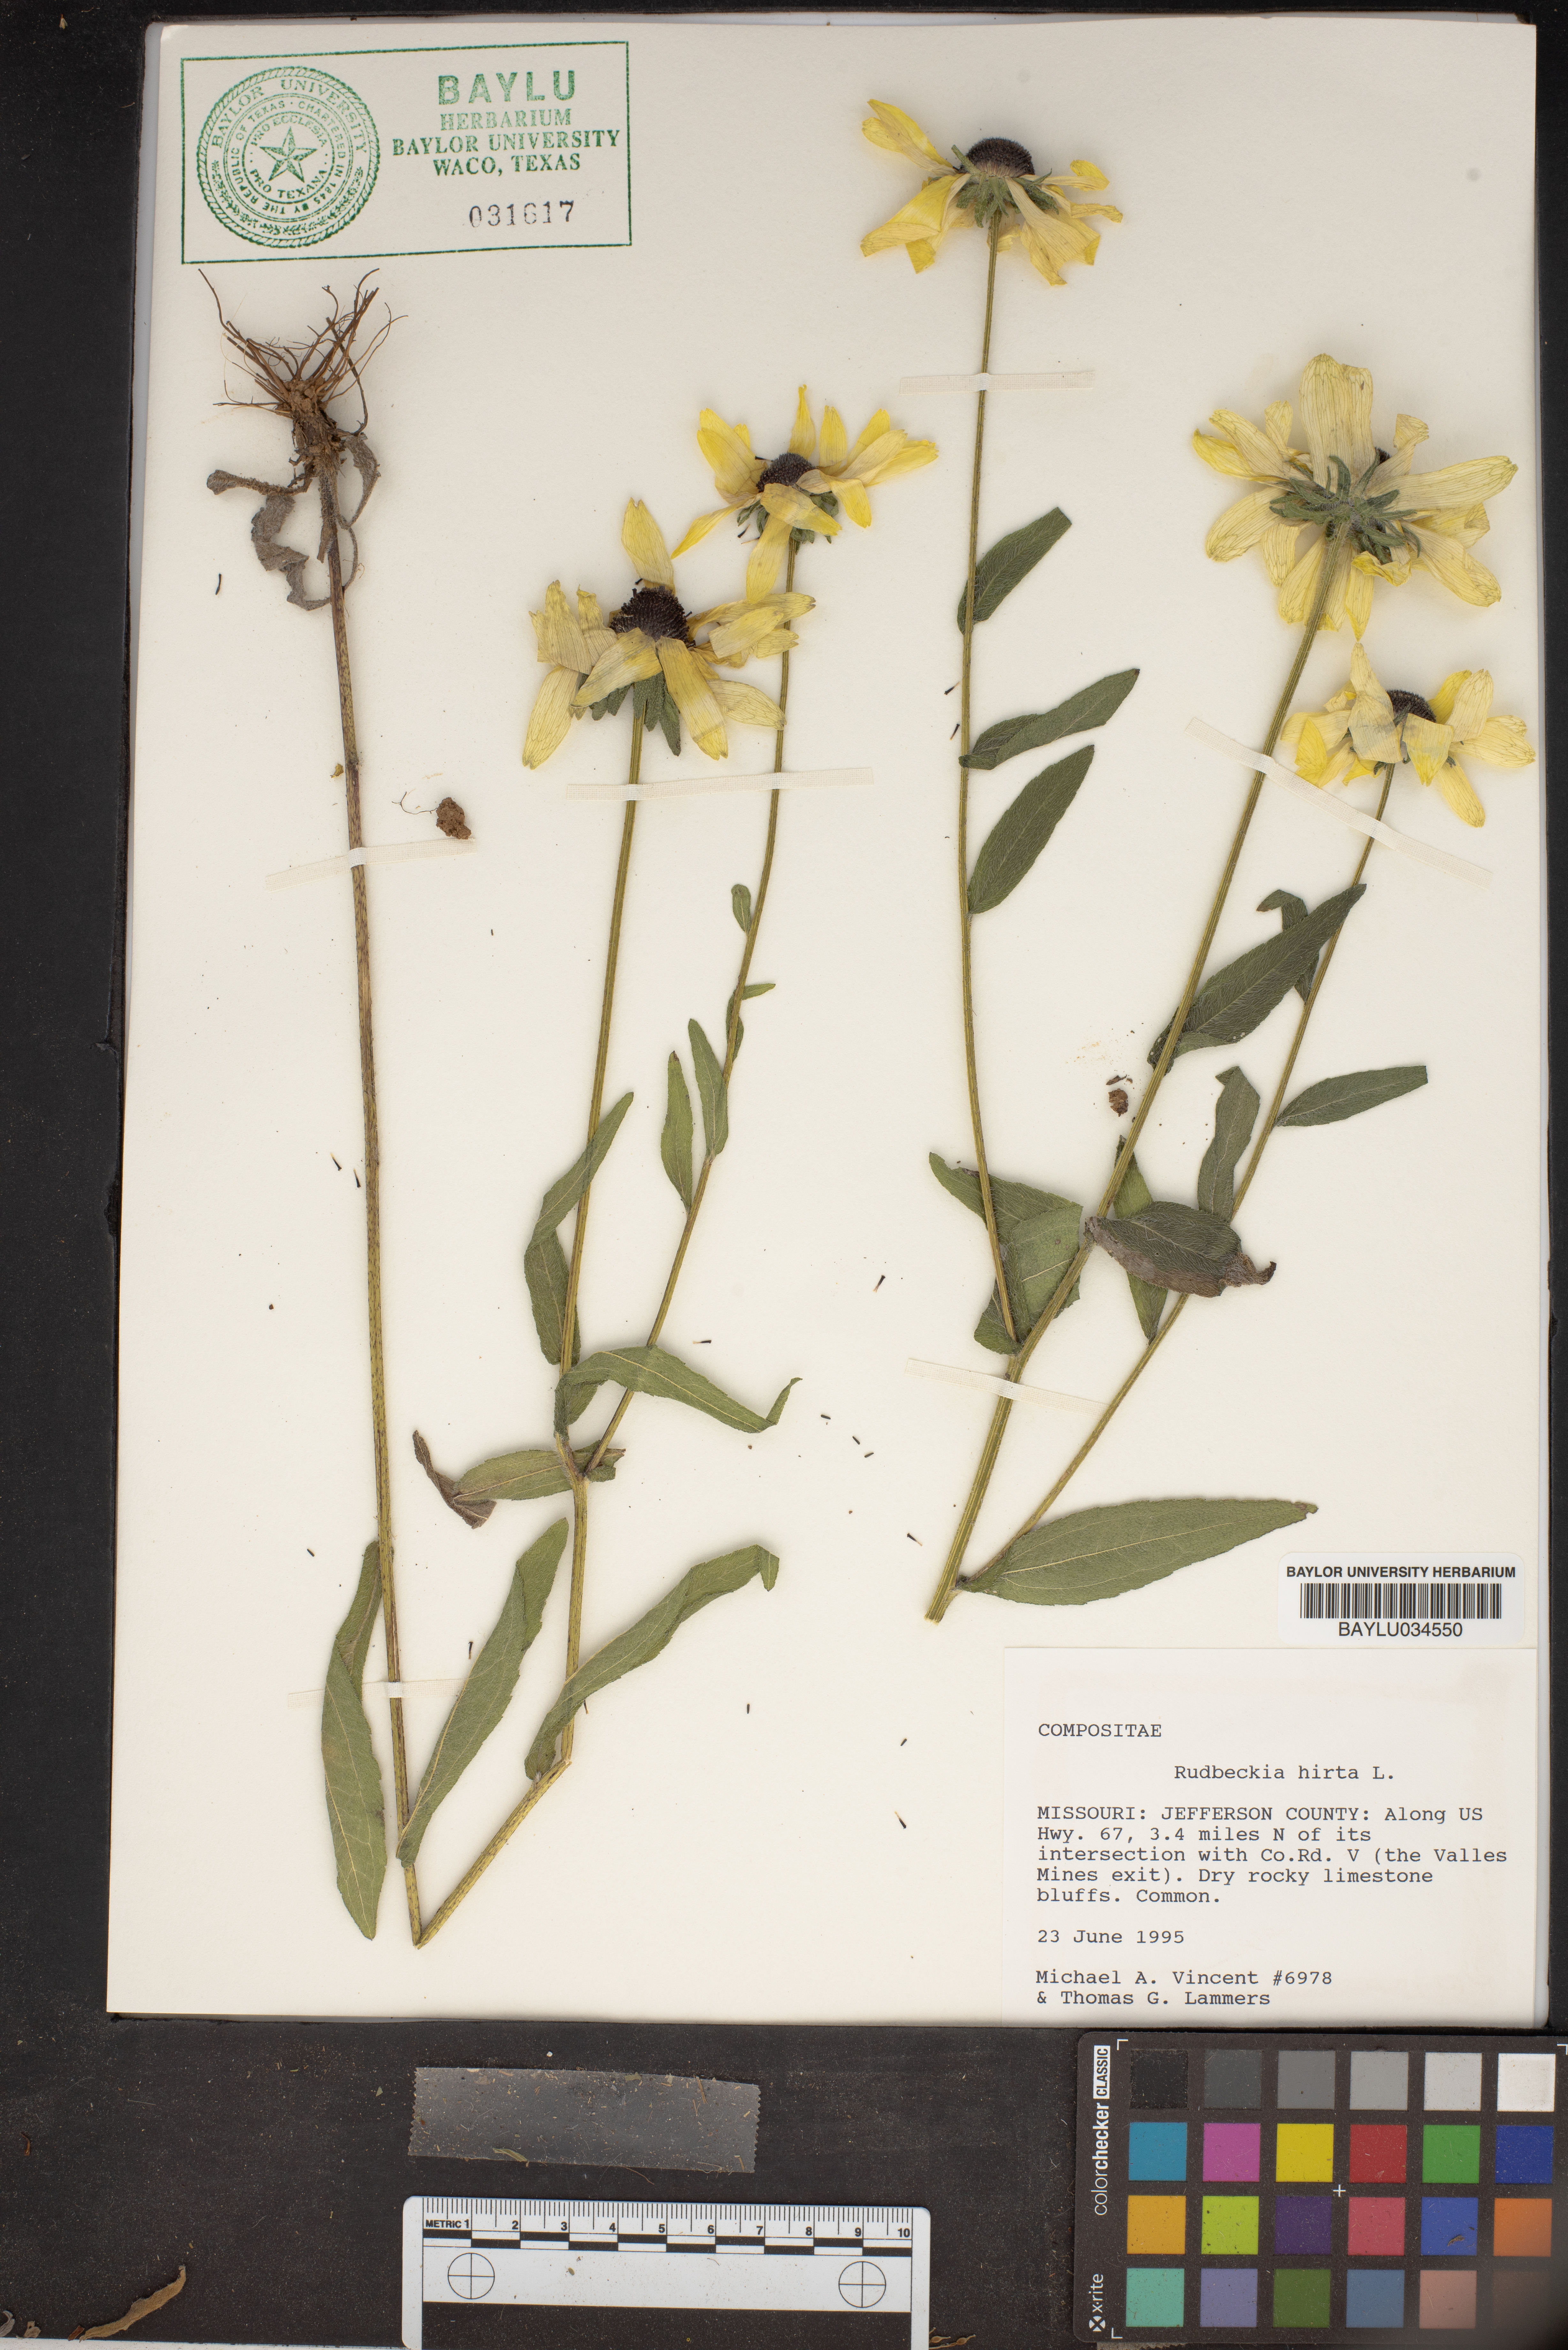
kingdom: Plantae
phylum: Tracheophyta
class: Magnoliopsida
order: Asterales
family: Asteraceae
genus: Rudbeckia
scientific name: Rudbeckia hirta
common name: Black-eyed-susan
